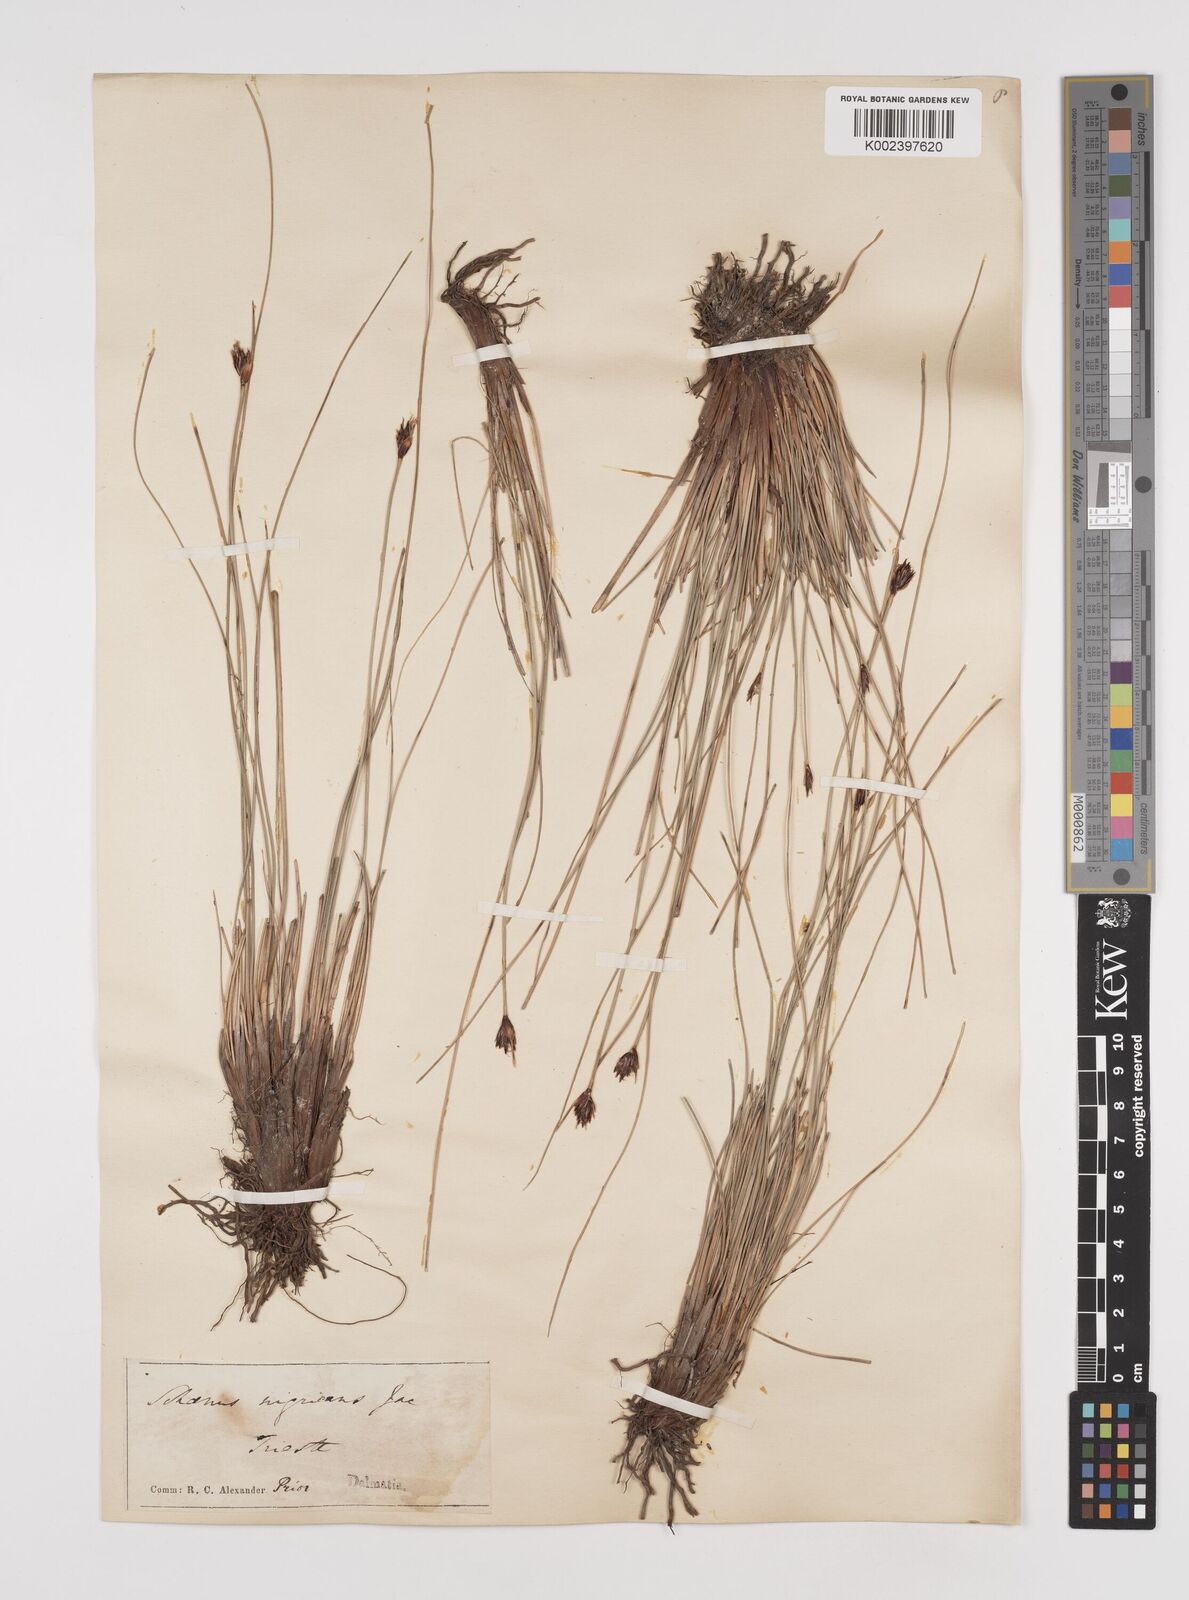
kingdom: Plantae
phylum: Tracheophyta
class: Liliopsida
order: Poales
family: Cyperaceae
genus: Schoenus
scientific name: Schoenus nigricans
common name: Black bog-rush
